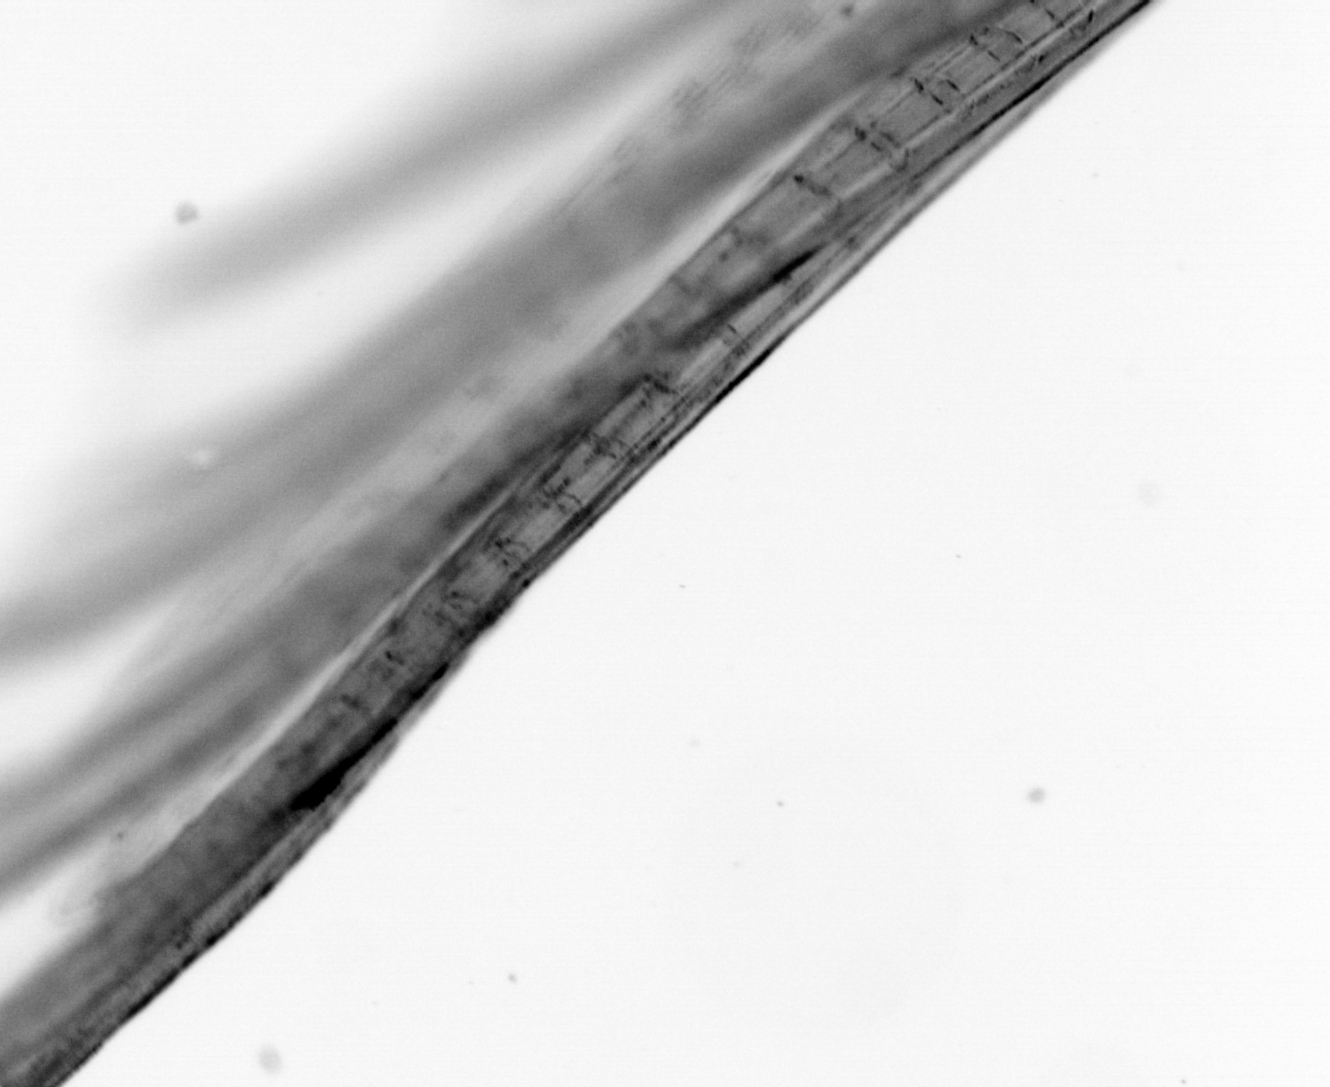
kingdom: Animalia
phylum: Chordata
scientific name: Chordata
